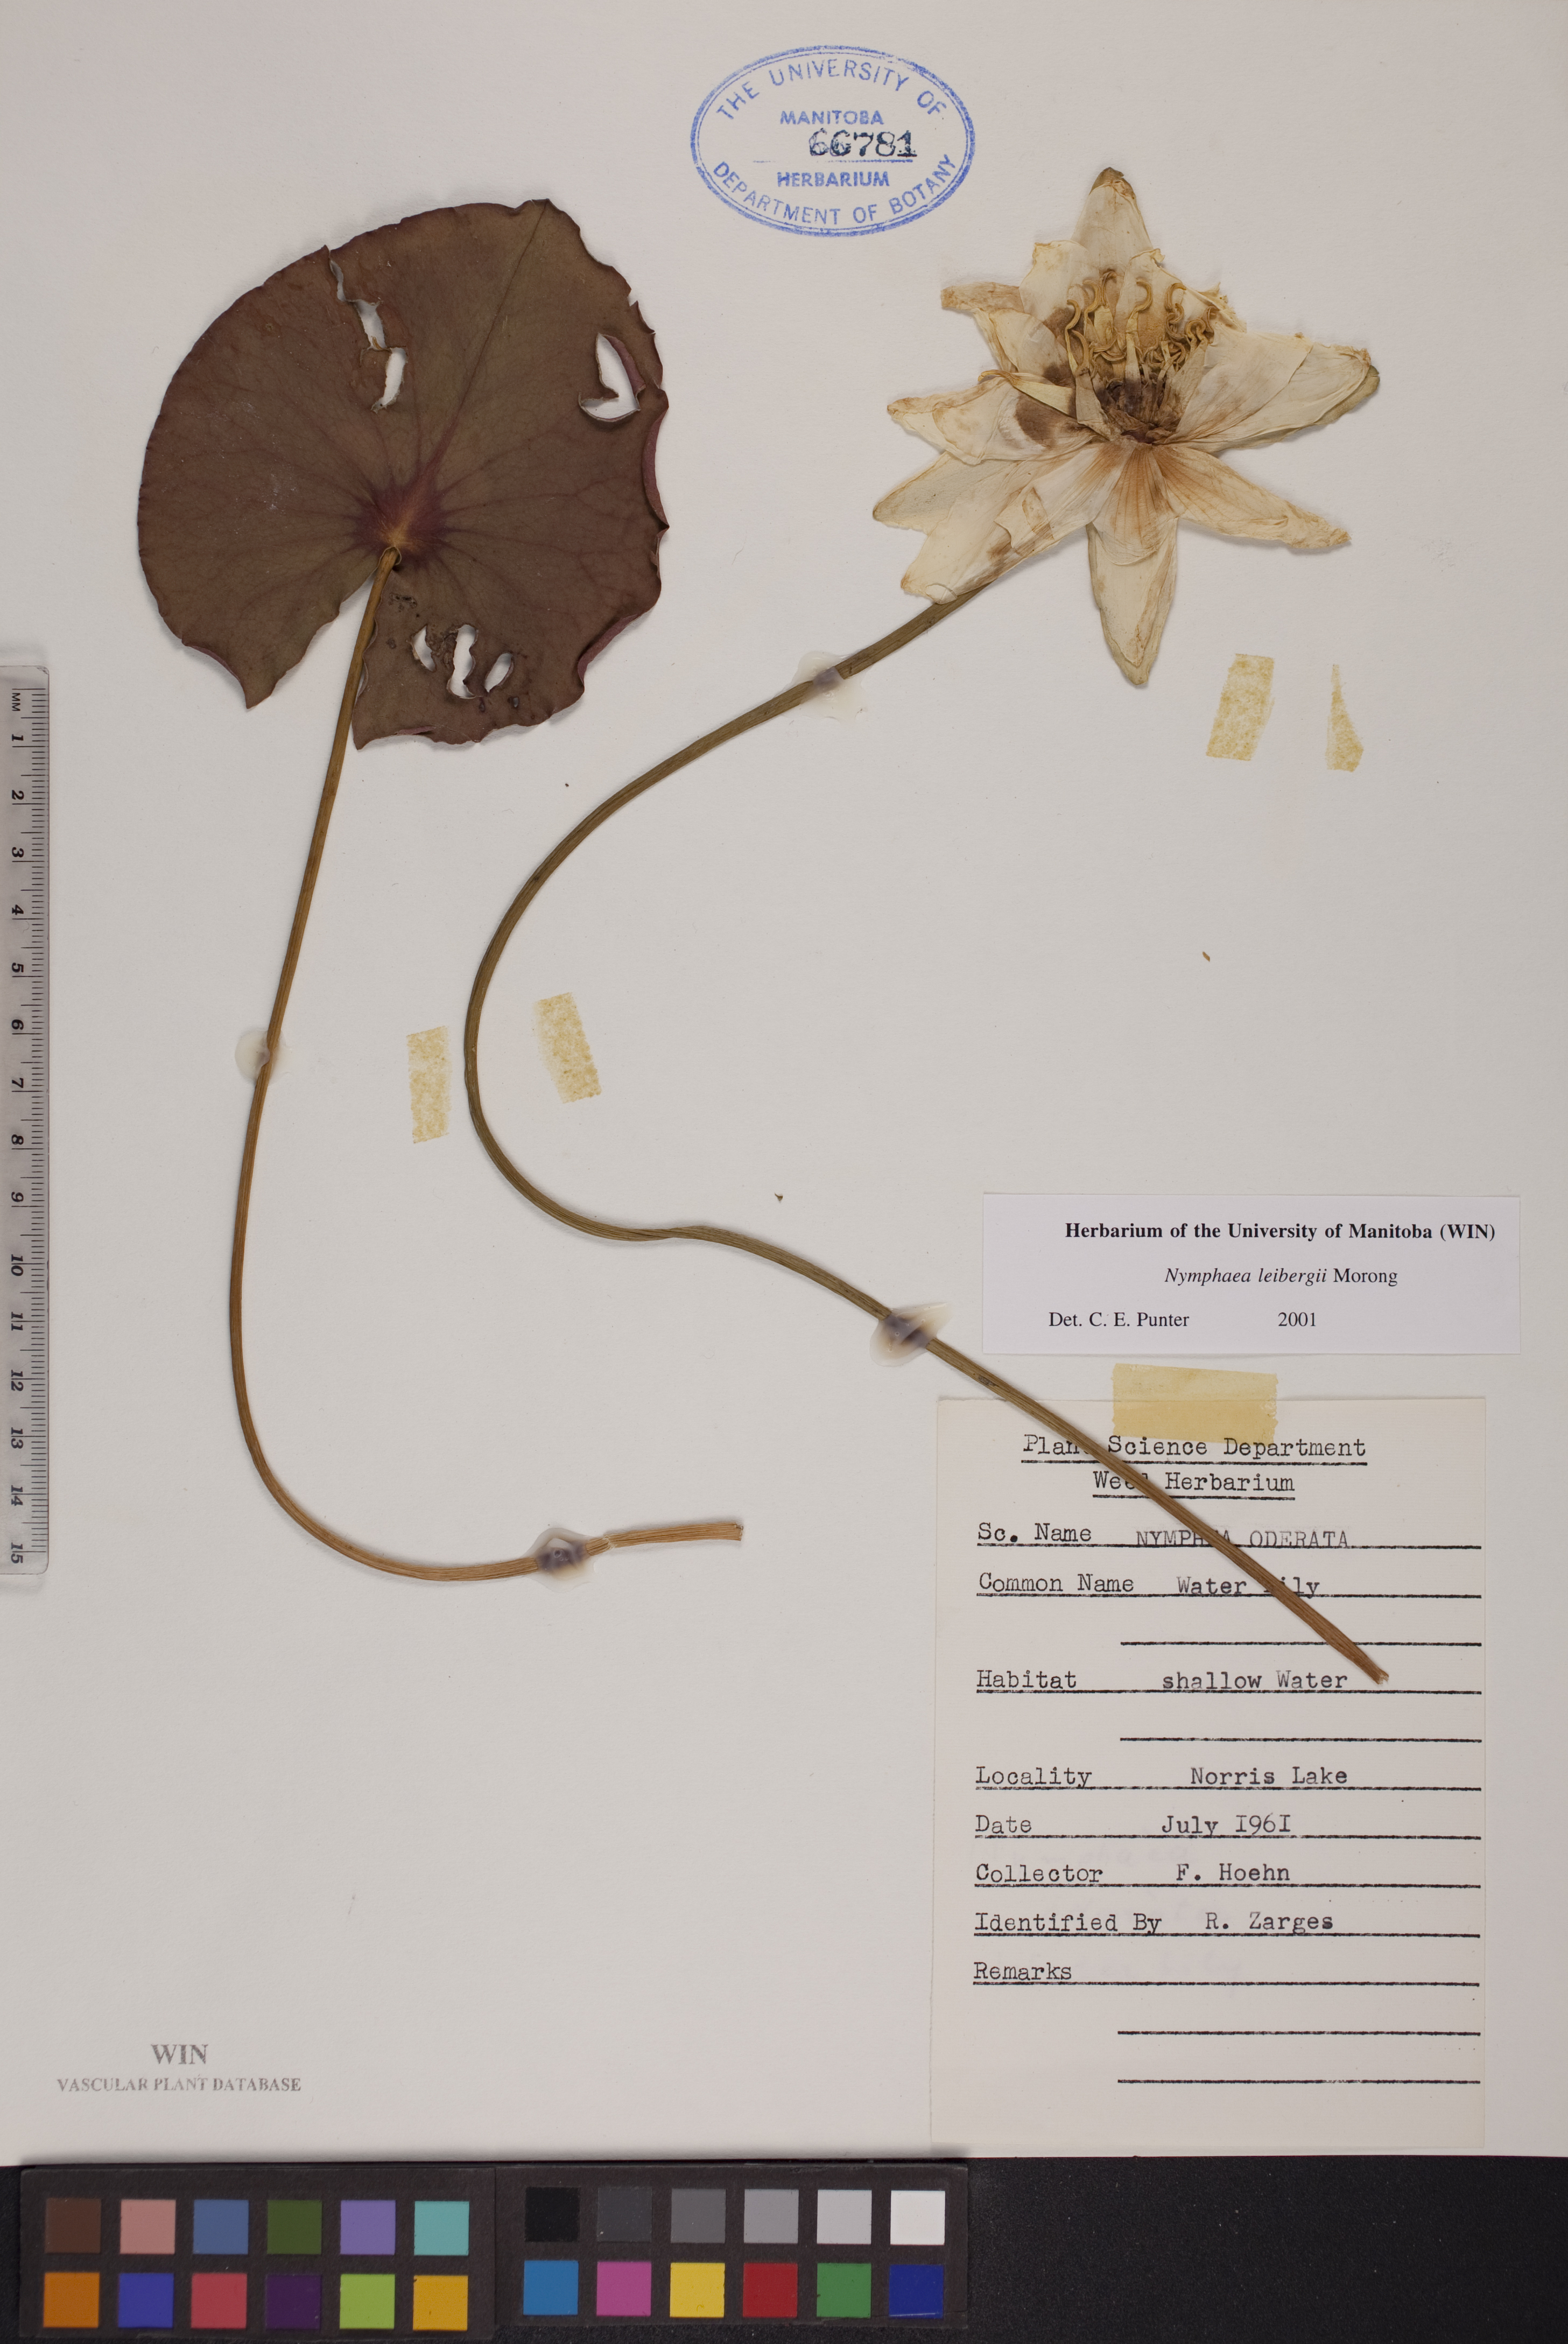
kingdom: Plantae
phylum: Tracheophyta
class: Magnoliopsida
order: Nymphaeales
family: Nymphaeaceae
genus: Nymphaea
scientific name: Nymphaea leibergii
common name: Dwarf water-lily
